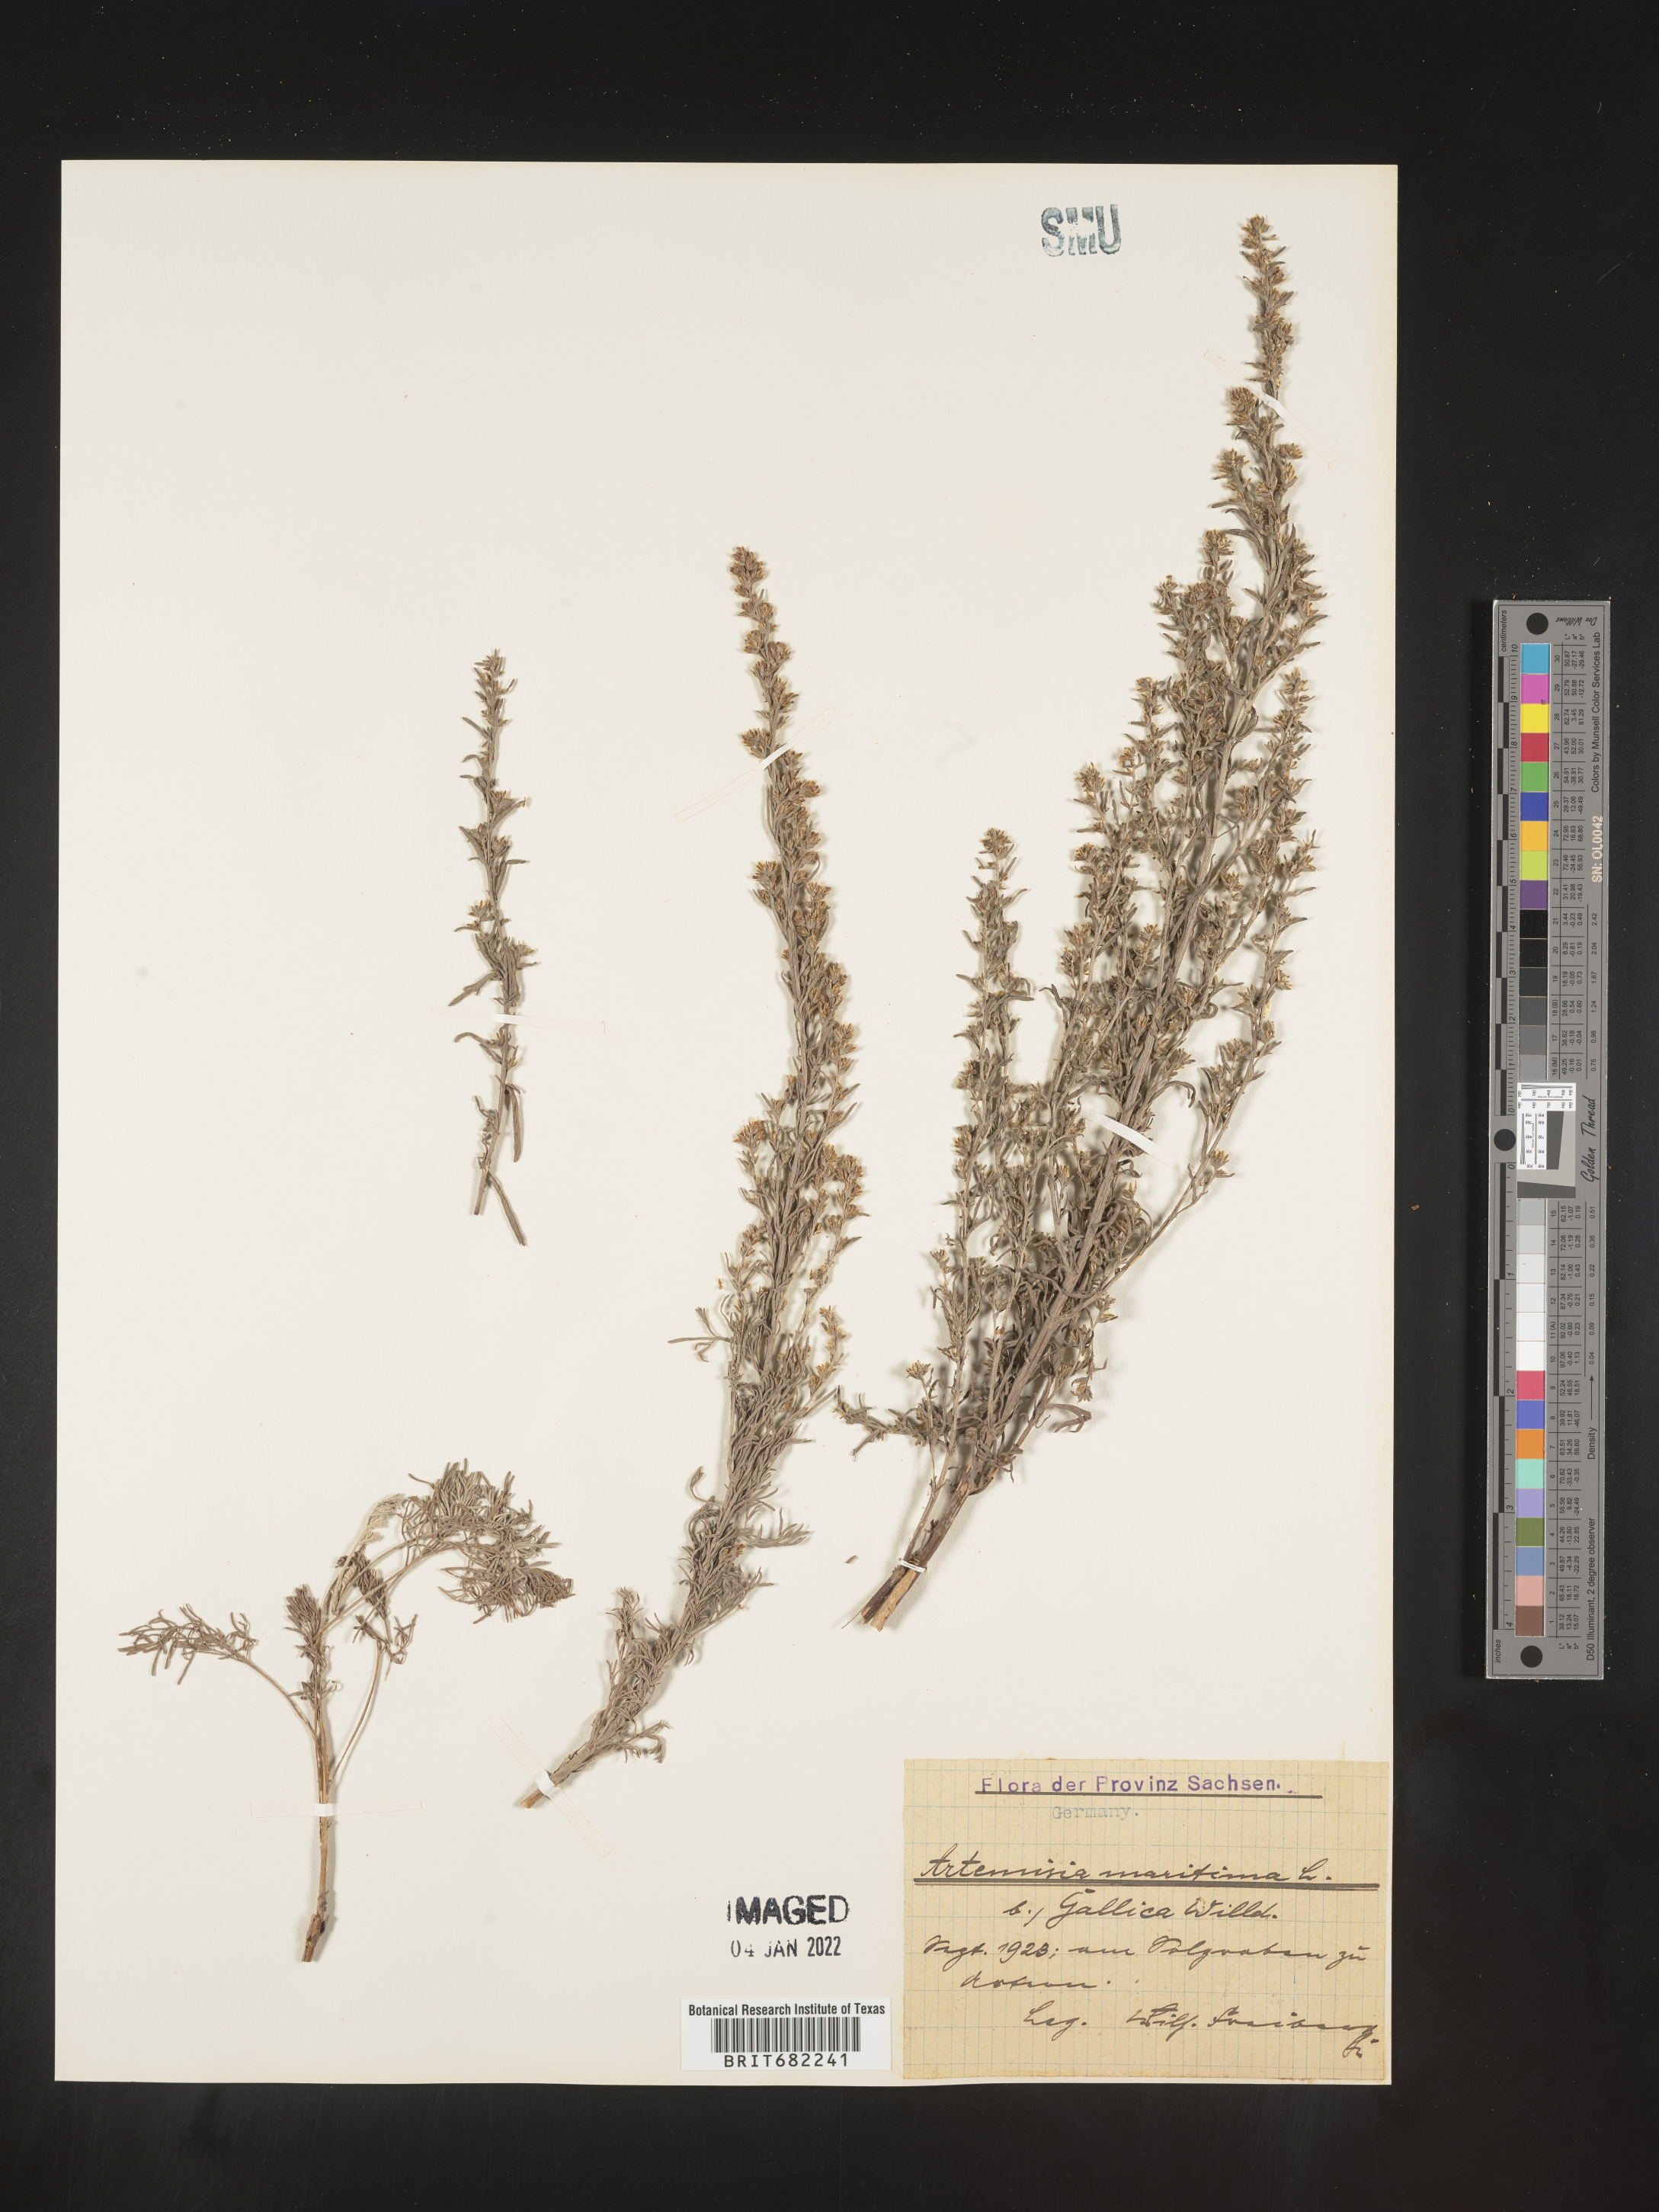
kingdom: Plantae
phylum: Tracheophyta
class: Magnoliopsida
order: Asterales
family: Asteraceae
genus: Artemisia
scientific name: Artemisia
